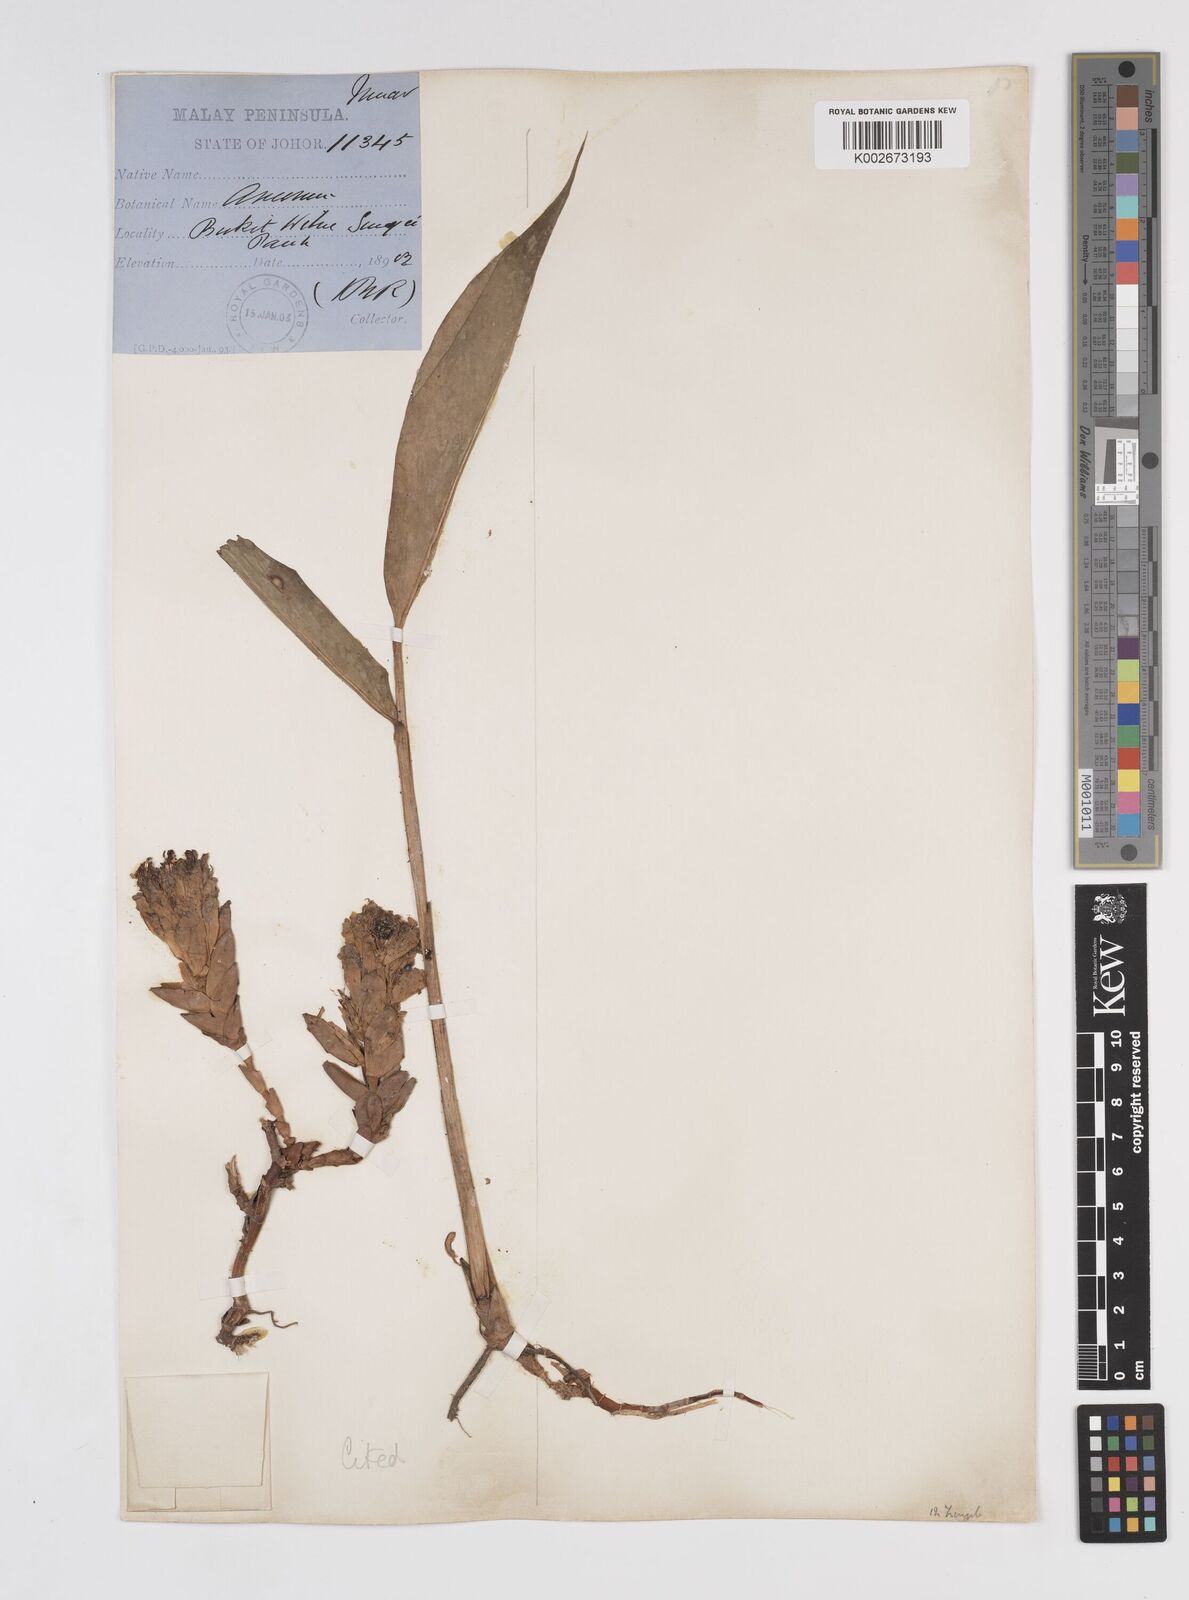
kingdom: Plantae
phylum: Tracheophyta
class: Liliopsida
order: Zingiberales
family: Zingiberaceae
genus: Wurfbainia
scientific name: Wurfbainia uliginosa
